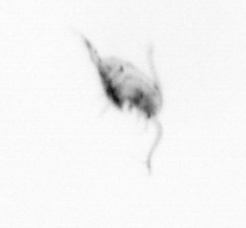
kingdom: Animalia
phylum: Arthropoda
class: Copepoda
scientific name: Copepoda
